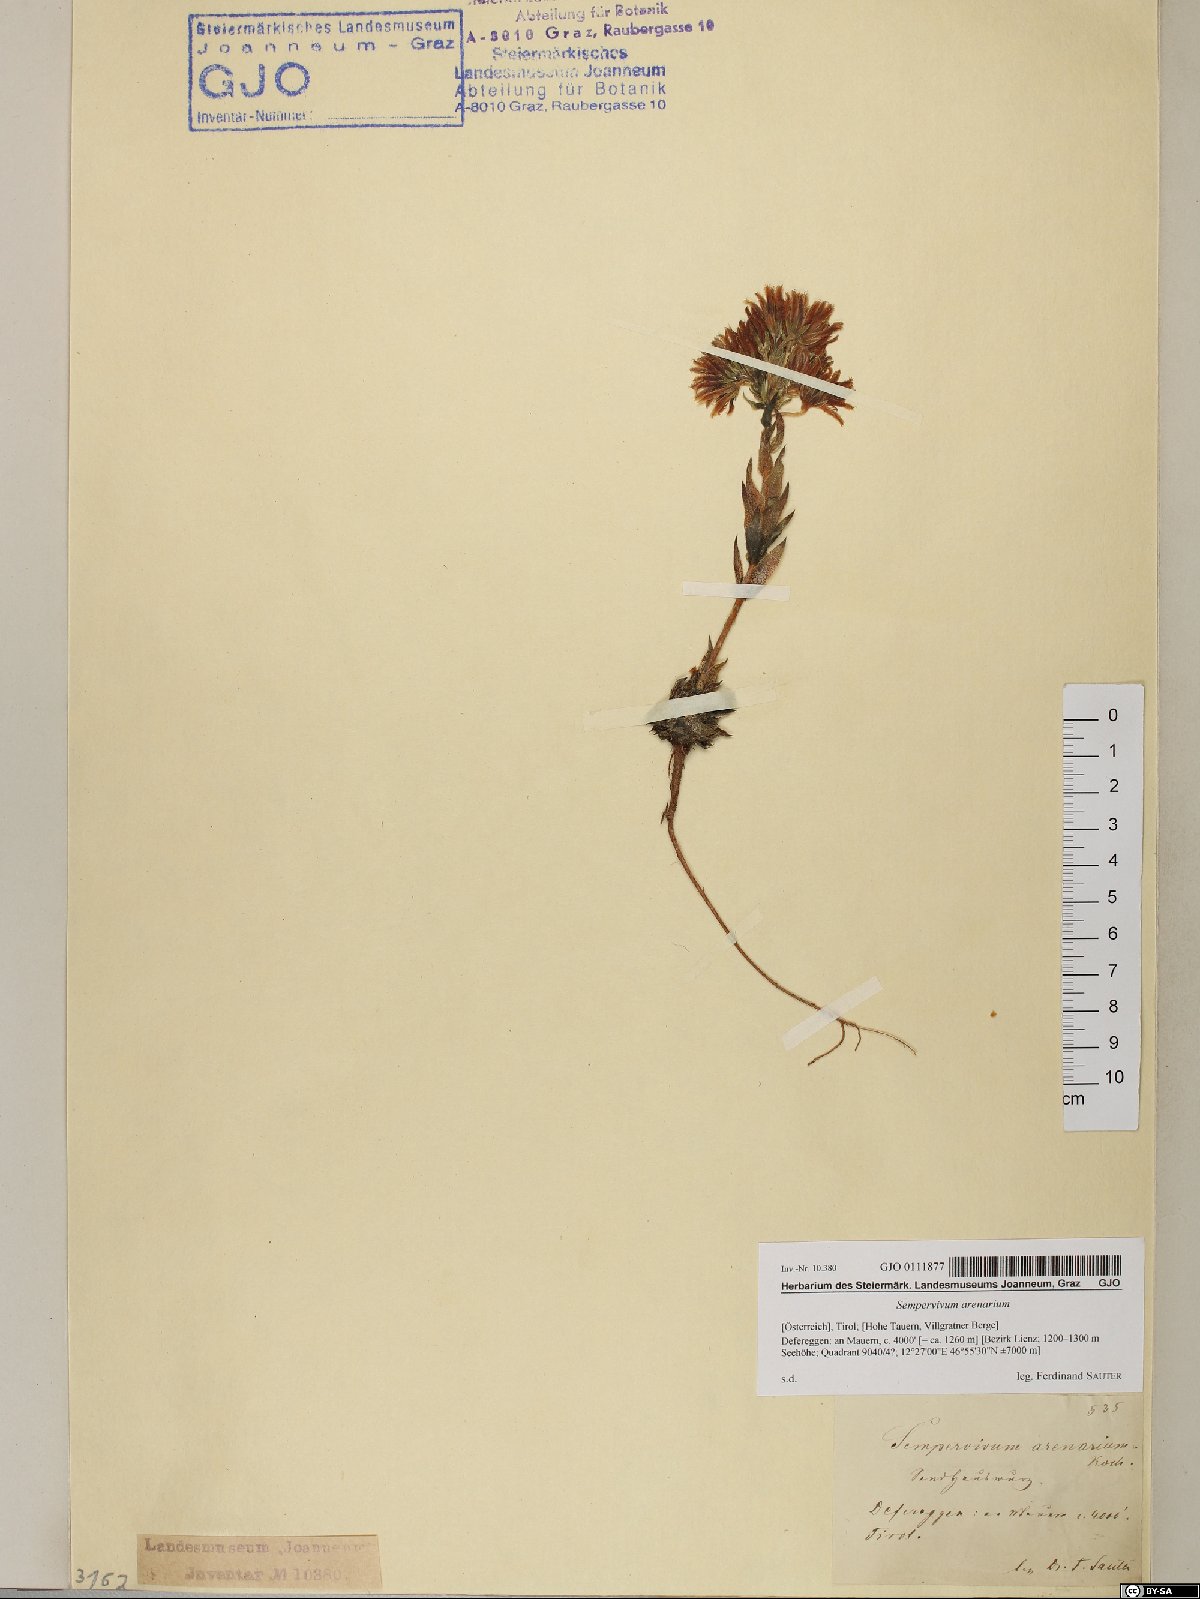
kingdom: Plantae
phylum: Tracheophyta
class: Magnoliopsida
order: Saxifragales
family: Crassulaceae
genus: Sempervivum
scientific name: Sempervivum globiferum
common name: Rolling hen-and-chicks
